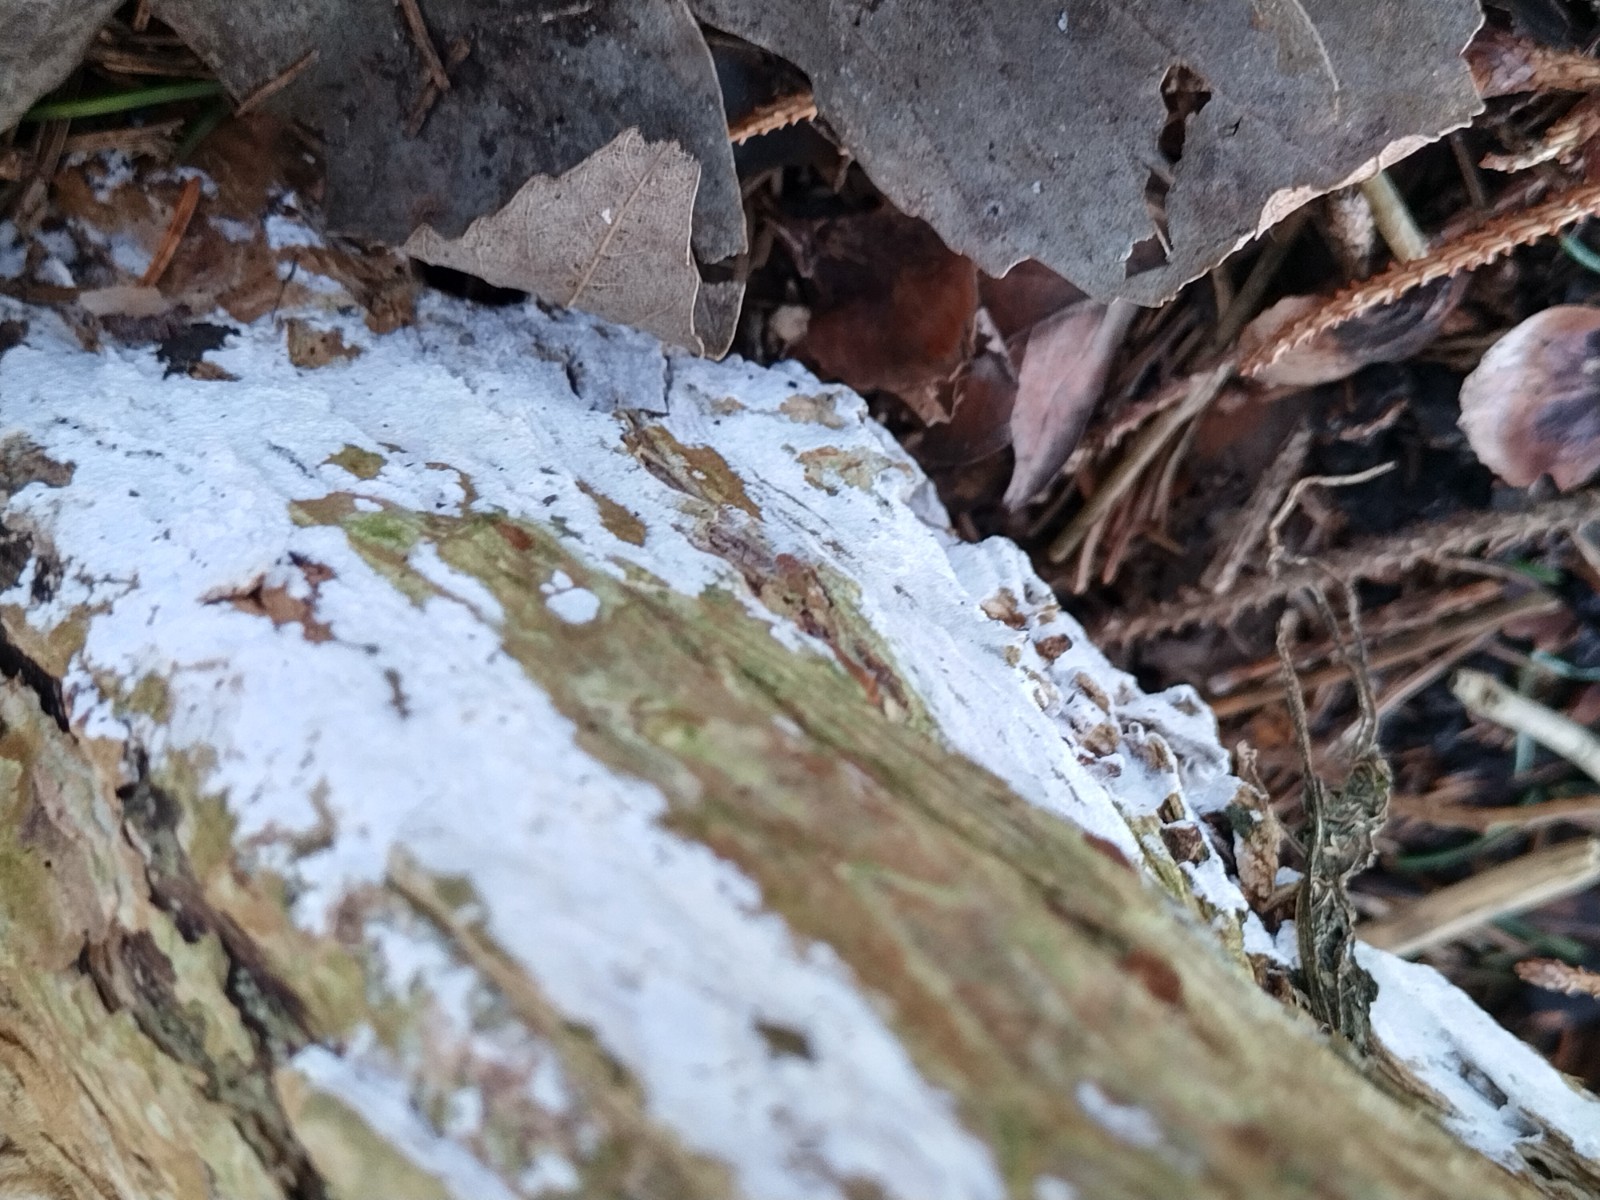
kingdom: Fungi
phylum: Basidiomycota
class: Agaricomycetes
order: Corticiales
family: Corticiaceae
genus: Lyomyces
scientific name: Lyomyces sambuci
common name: almindelig hyldehinde
